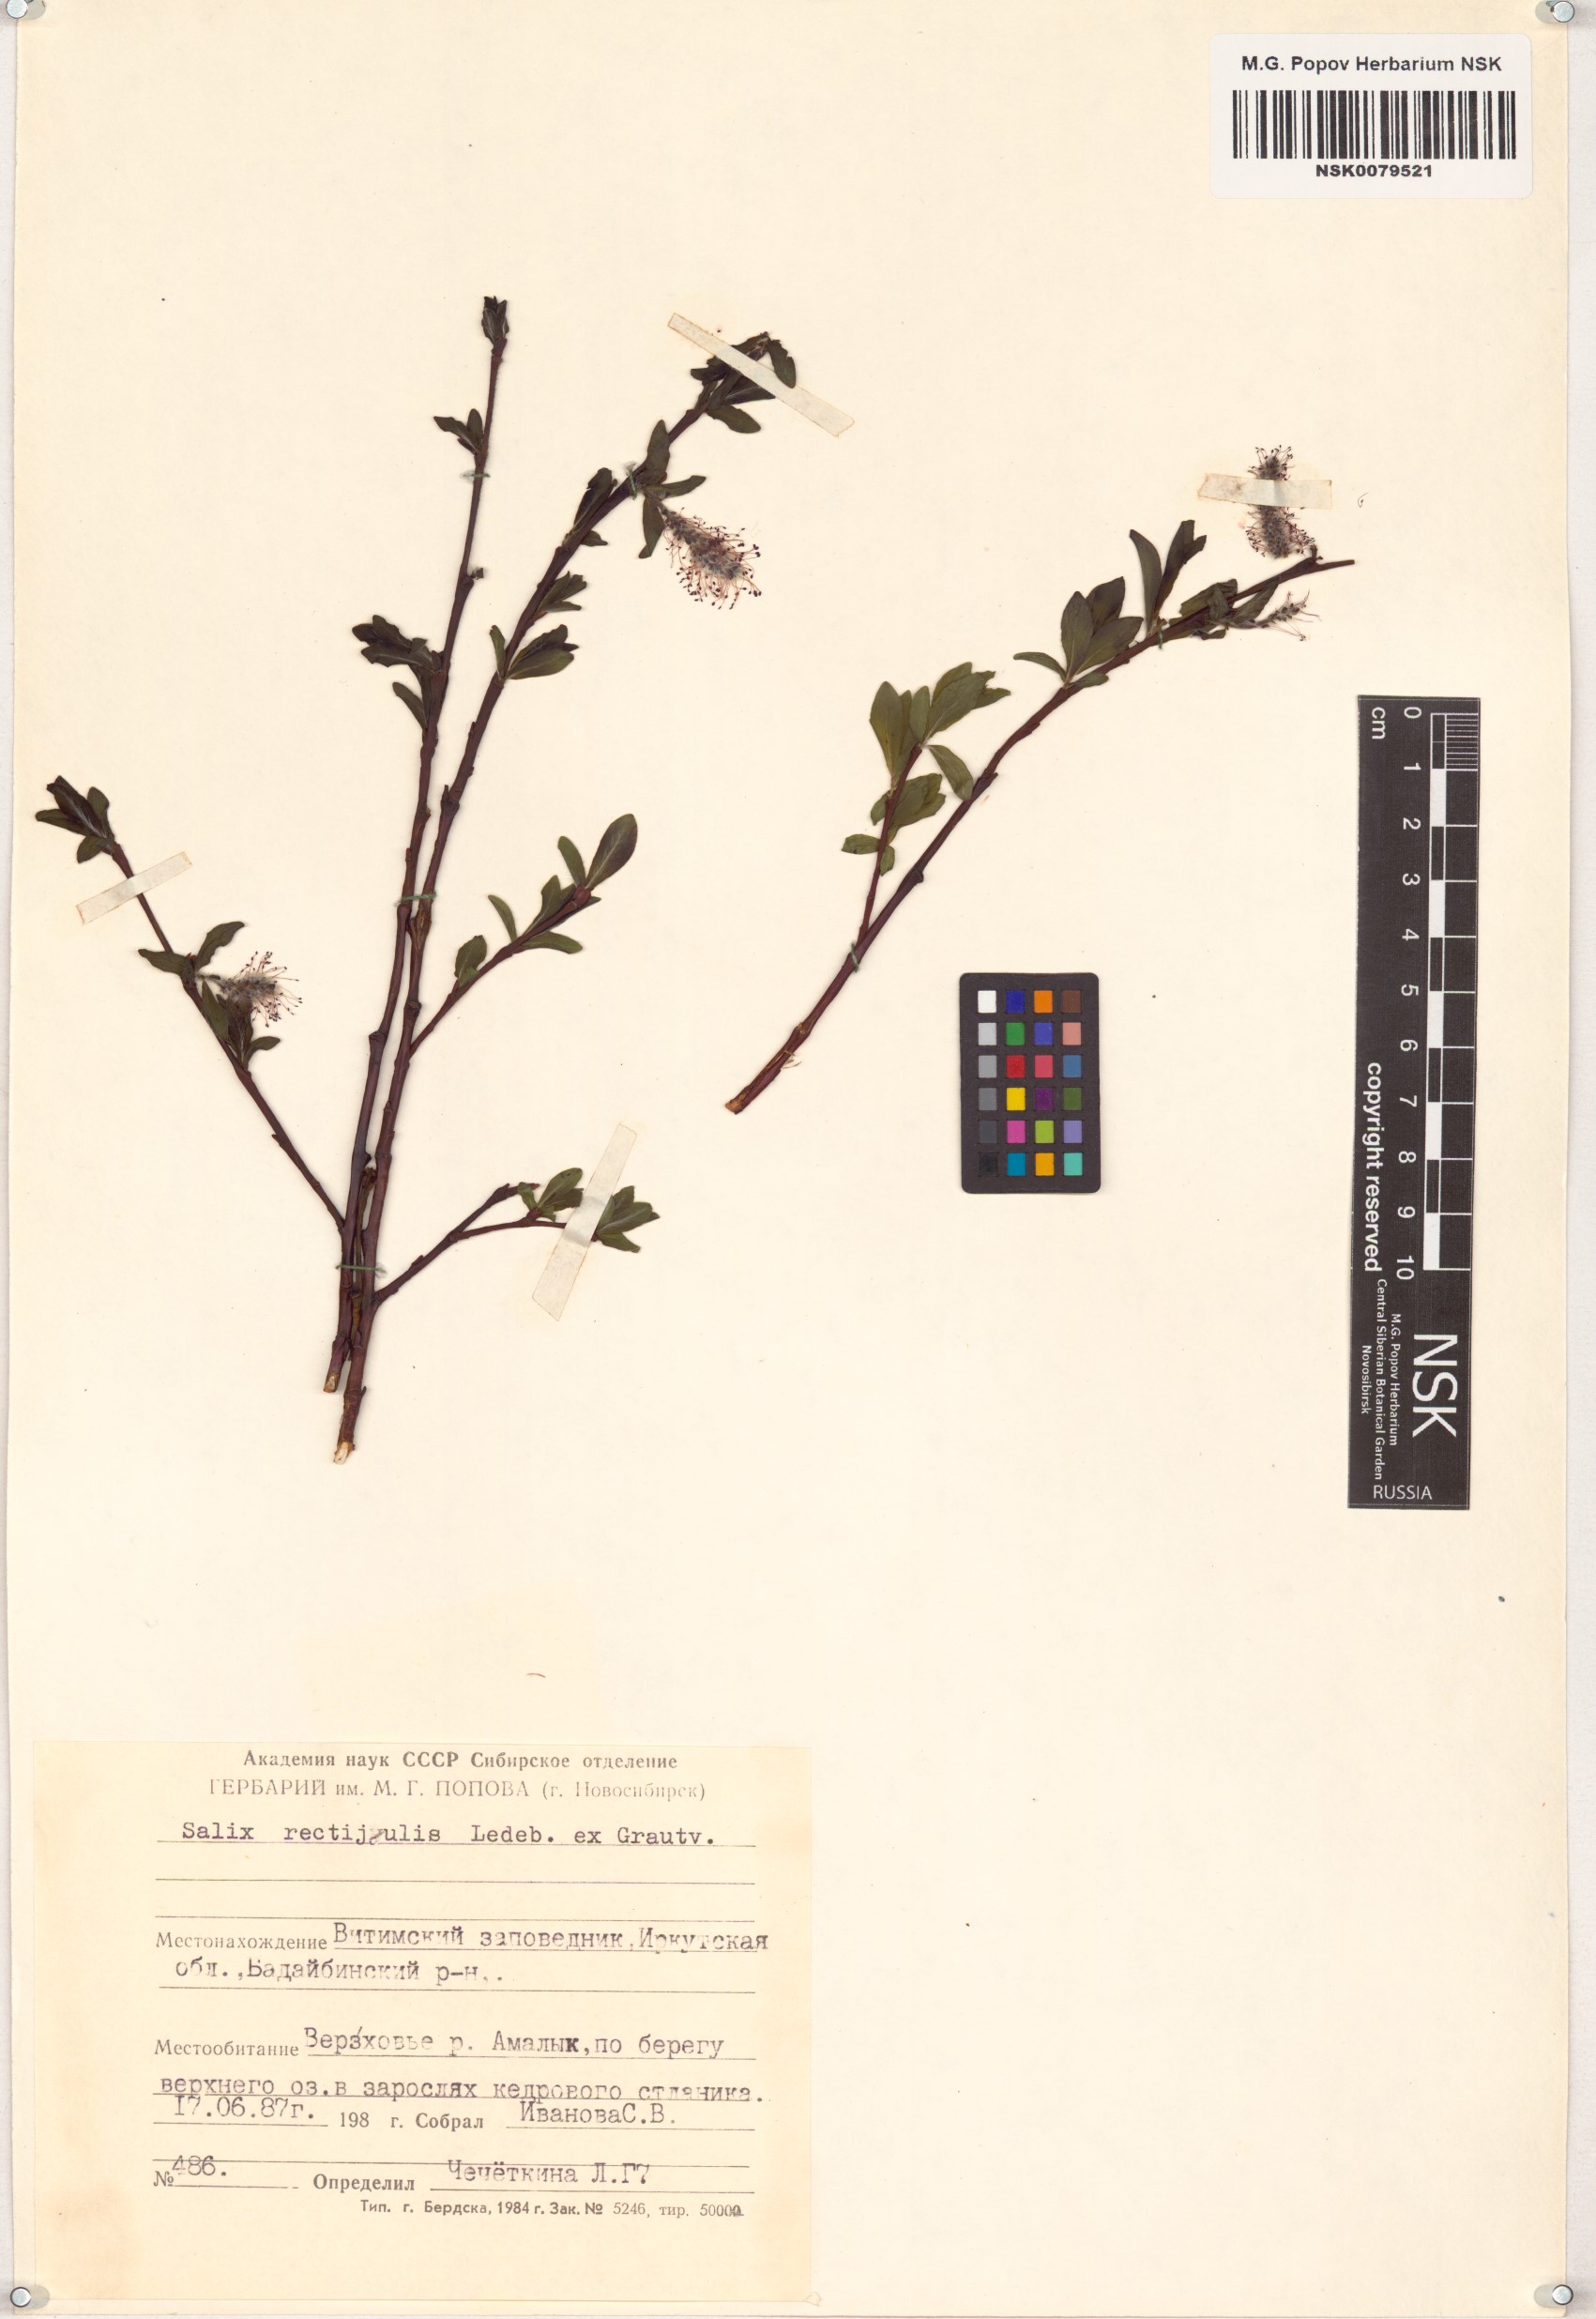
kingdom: Plantae
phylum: Tracheophyta
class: Magnoliopsida
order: Malpighiales
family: Salicaceae
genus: Salix
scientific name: Salix rectijulis
